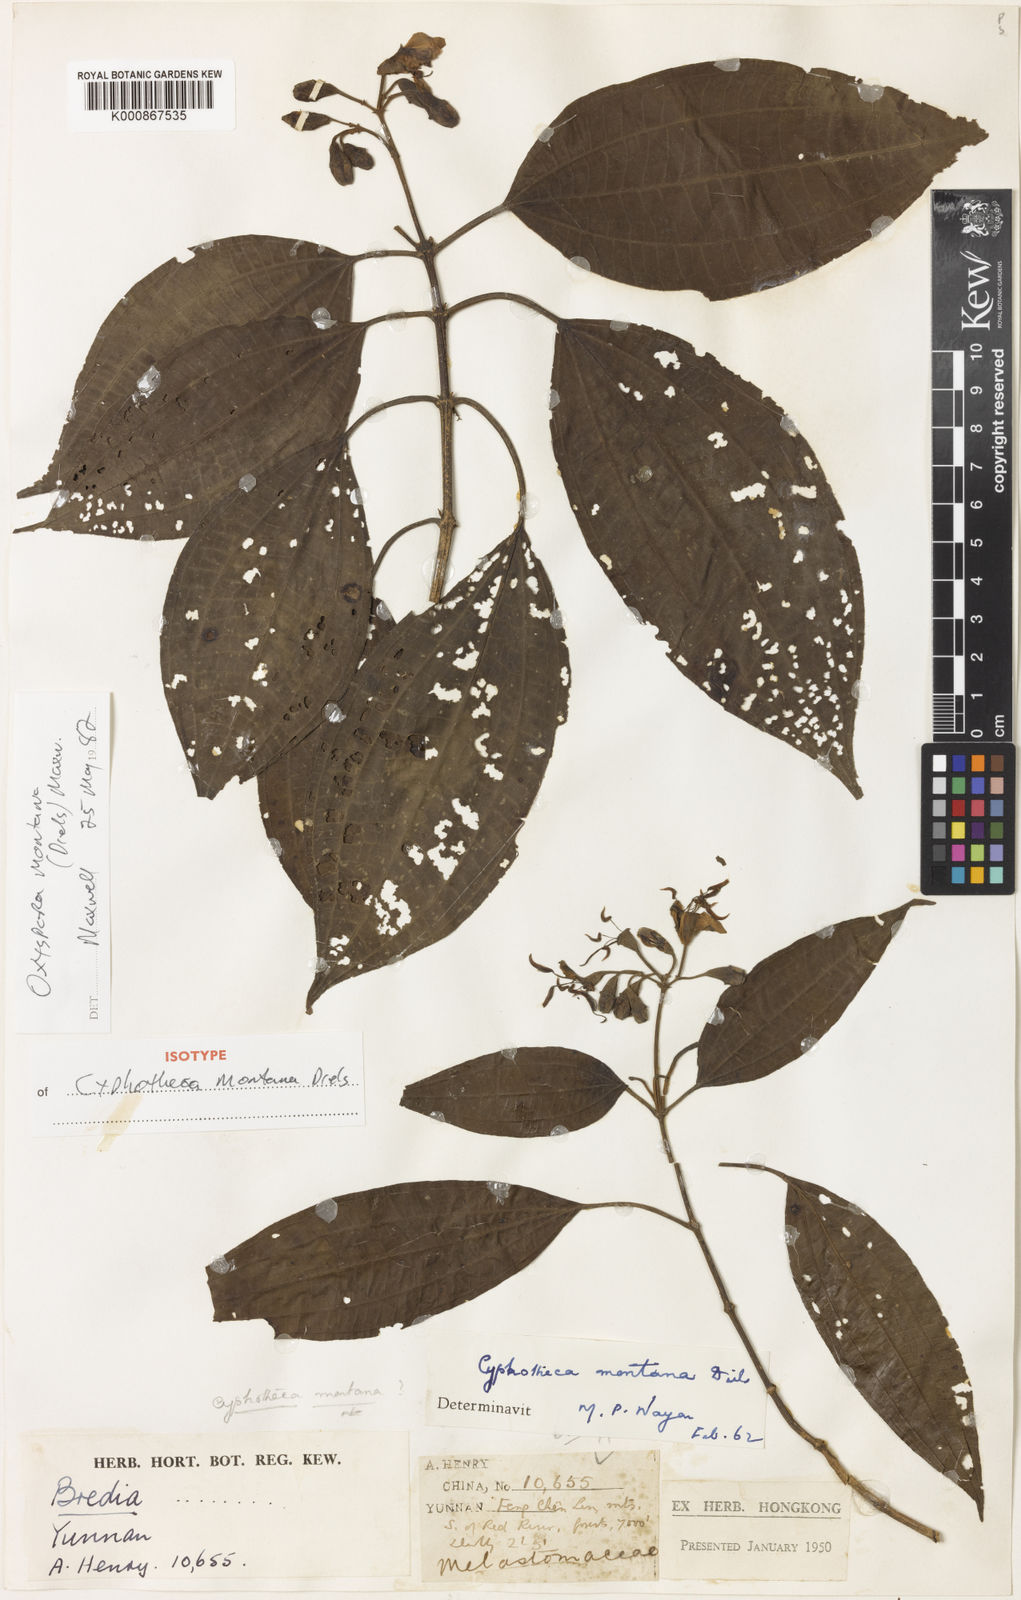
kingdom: Plantae
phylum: Tracheophyta
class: Magnoliopsida
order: Myrtales
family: Melastomataceae
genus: Cyphotheca
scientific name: Cyphotheca montana
